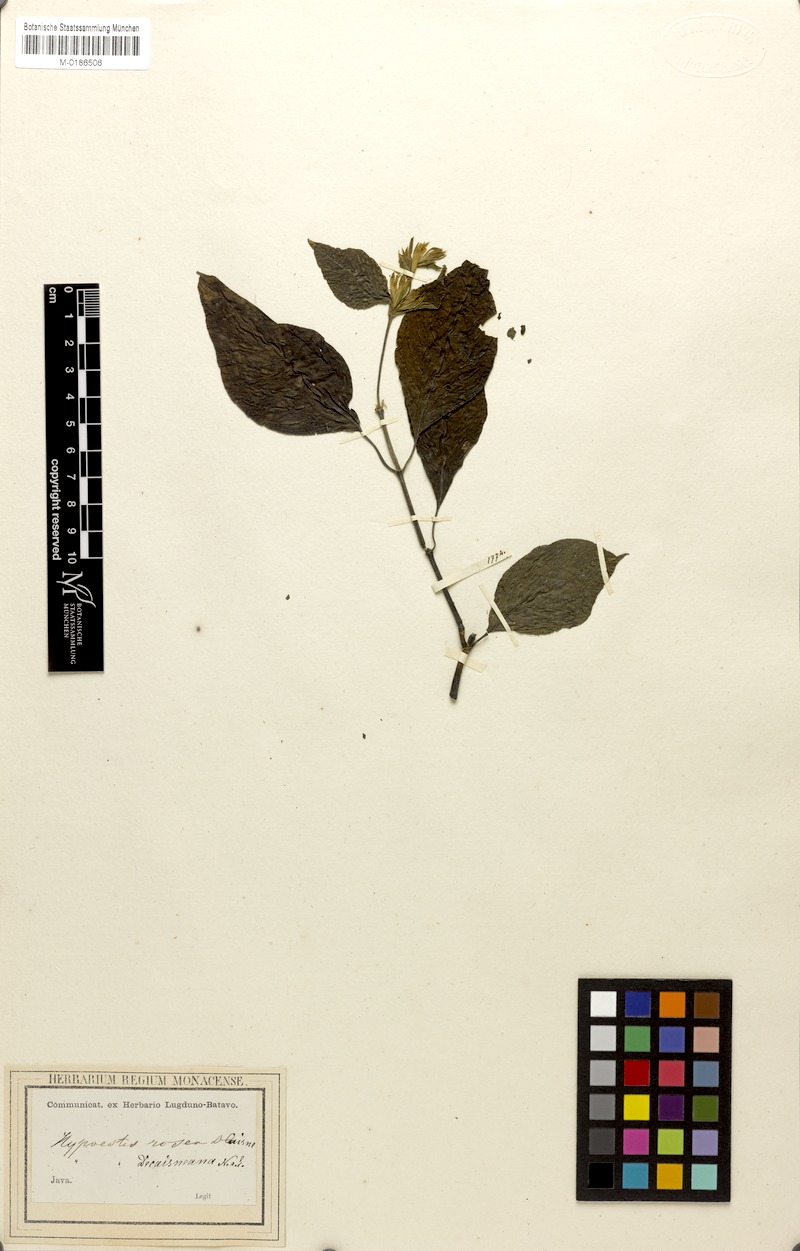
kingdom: Plantae
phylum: Tracheophyta
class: Magnoliopsida
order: Lamiales
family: Acanthaceae
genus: Hypoestes
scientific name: Hypoestes decaisneana
